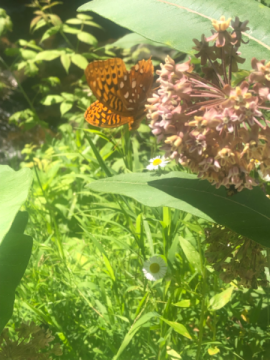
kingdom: Animalia
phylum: Arthropoda
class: Insecta
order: Lepidoptera
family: Nymphalidae
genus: Speyeria
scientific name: Speyeria cybele
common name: Great Spangled Fritillary
